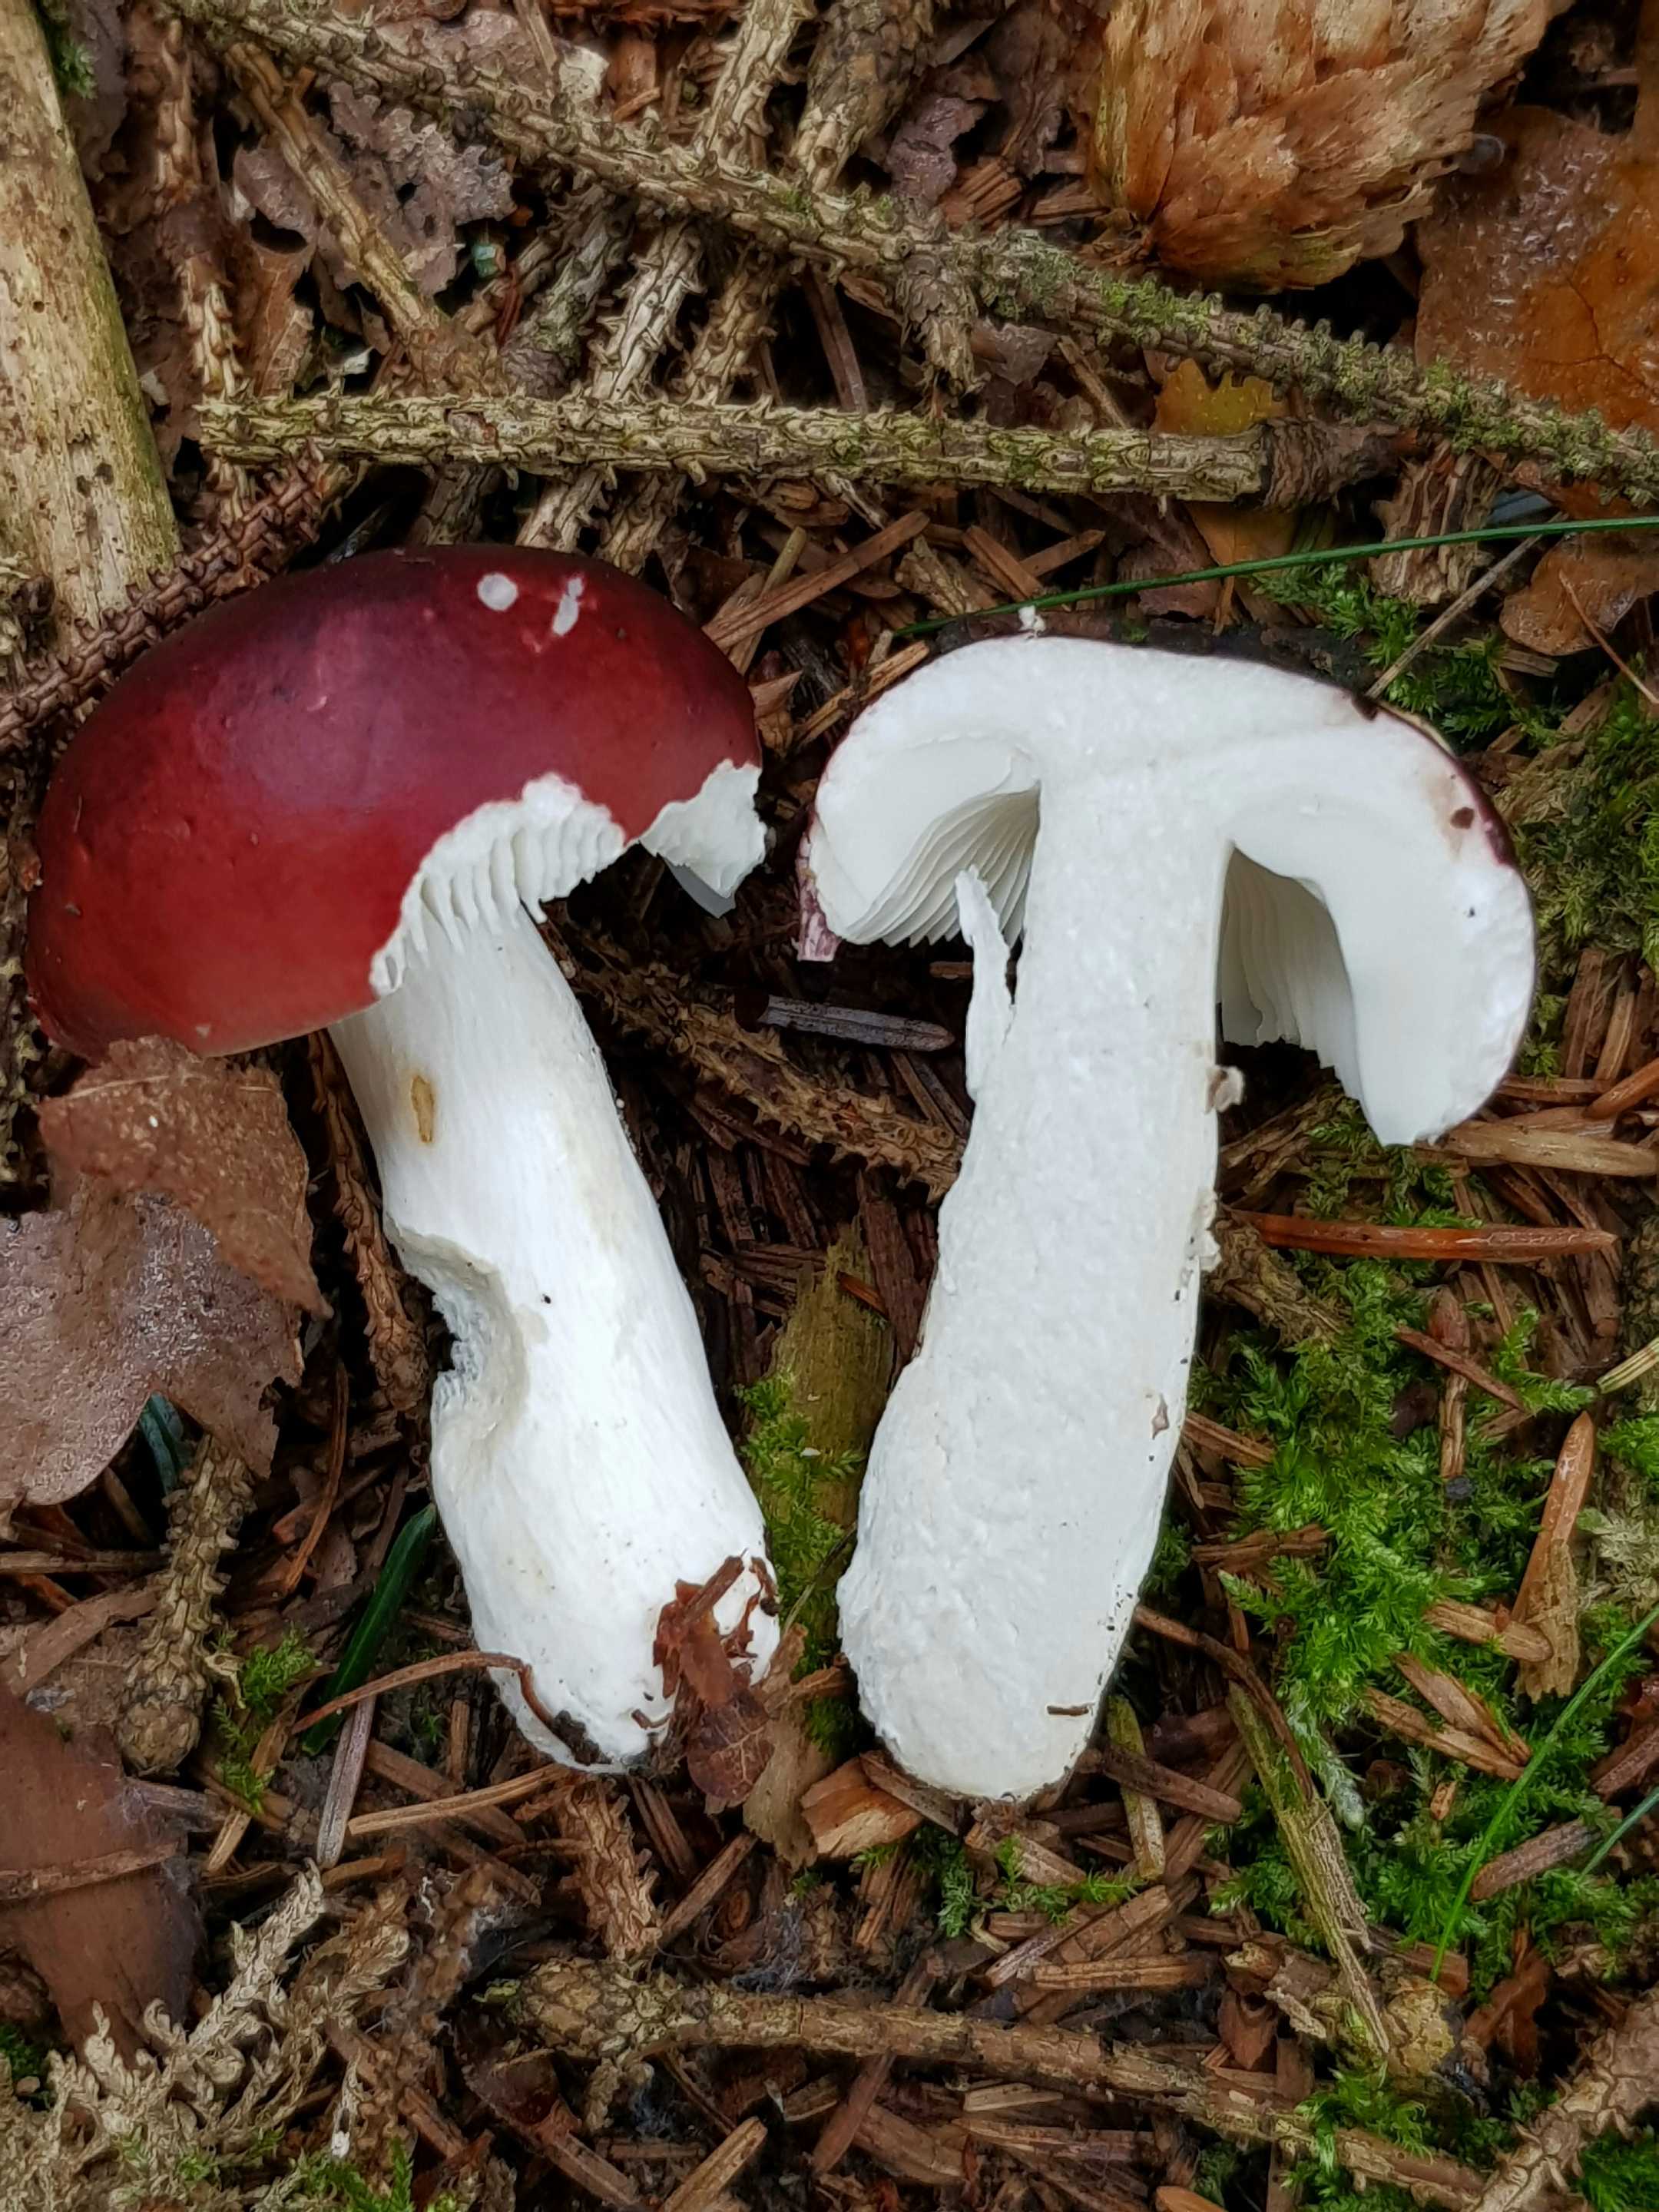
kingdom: Fungi
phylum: Basidiomycota
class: Agaricomycetes
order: Russulales
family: Russulaceae
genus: Russula
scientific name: Russula paludosa
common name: prægtig skørhat
